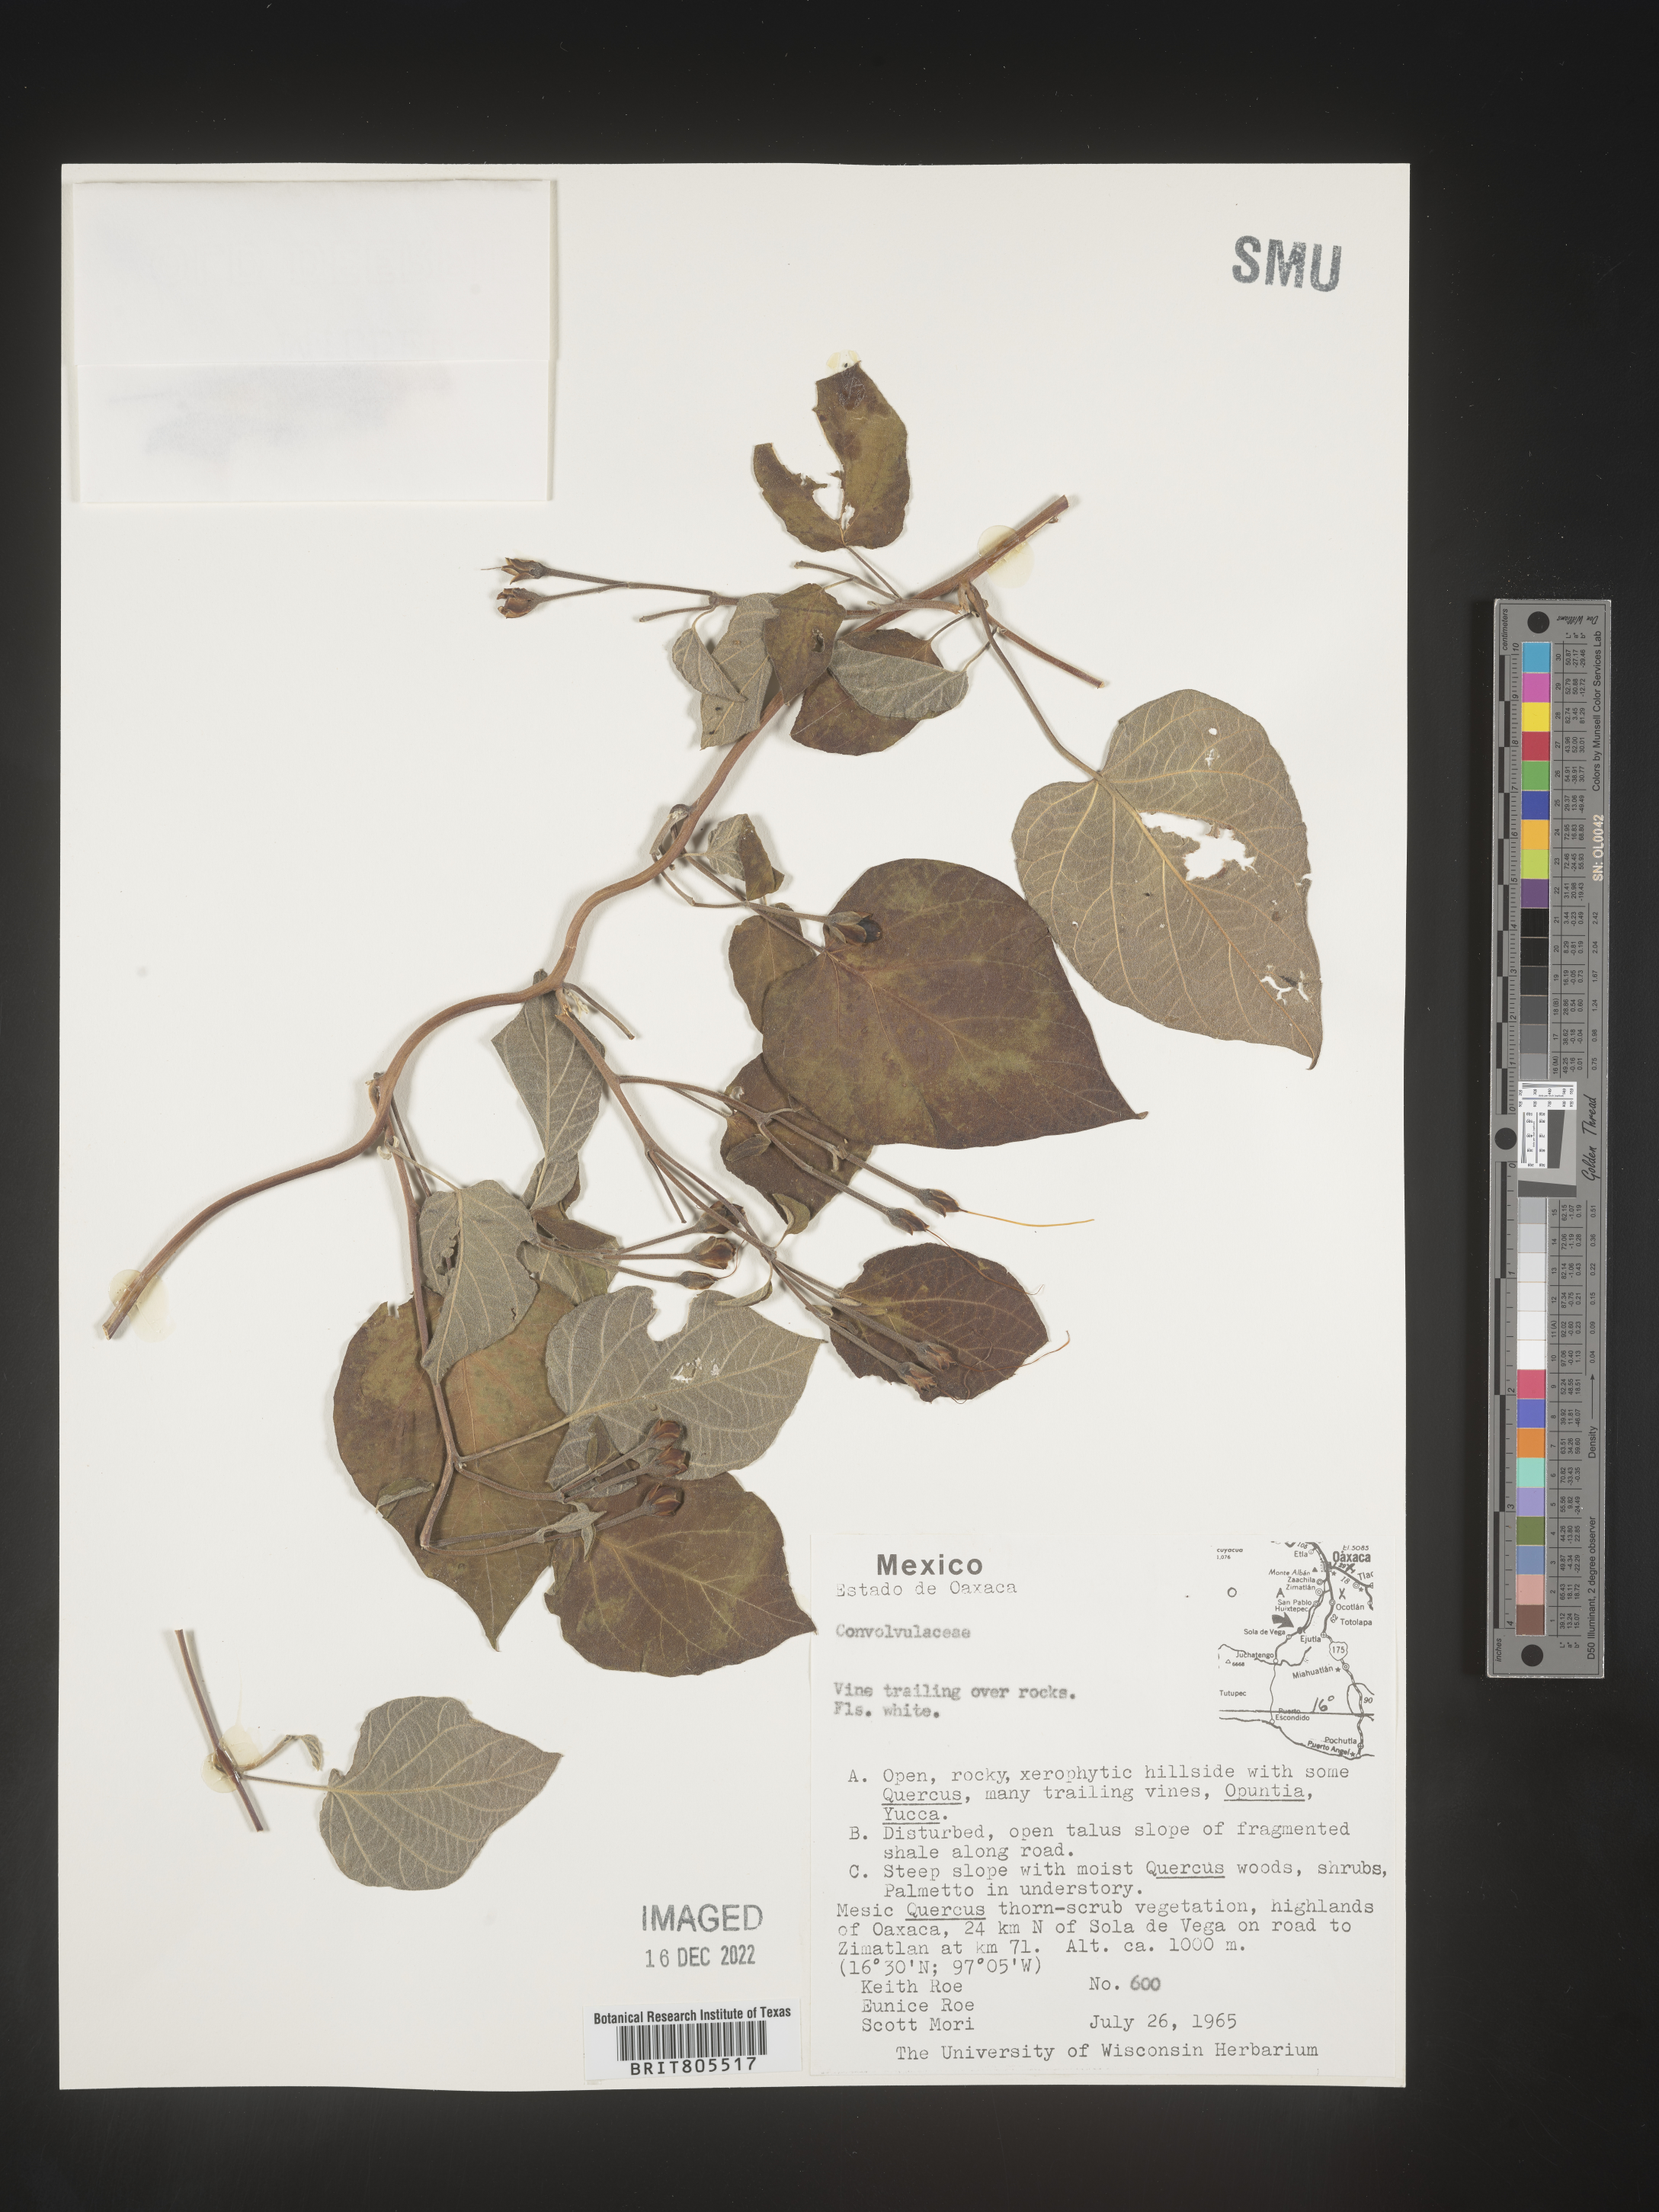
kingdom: Plantae
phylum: Tracheophyta
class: Magnoliopsida
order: Solanales
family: Convolvulaceae
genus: Ipomoea
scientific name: Ipomoea
